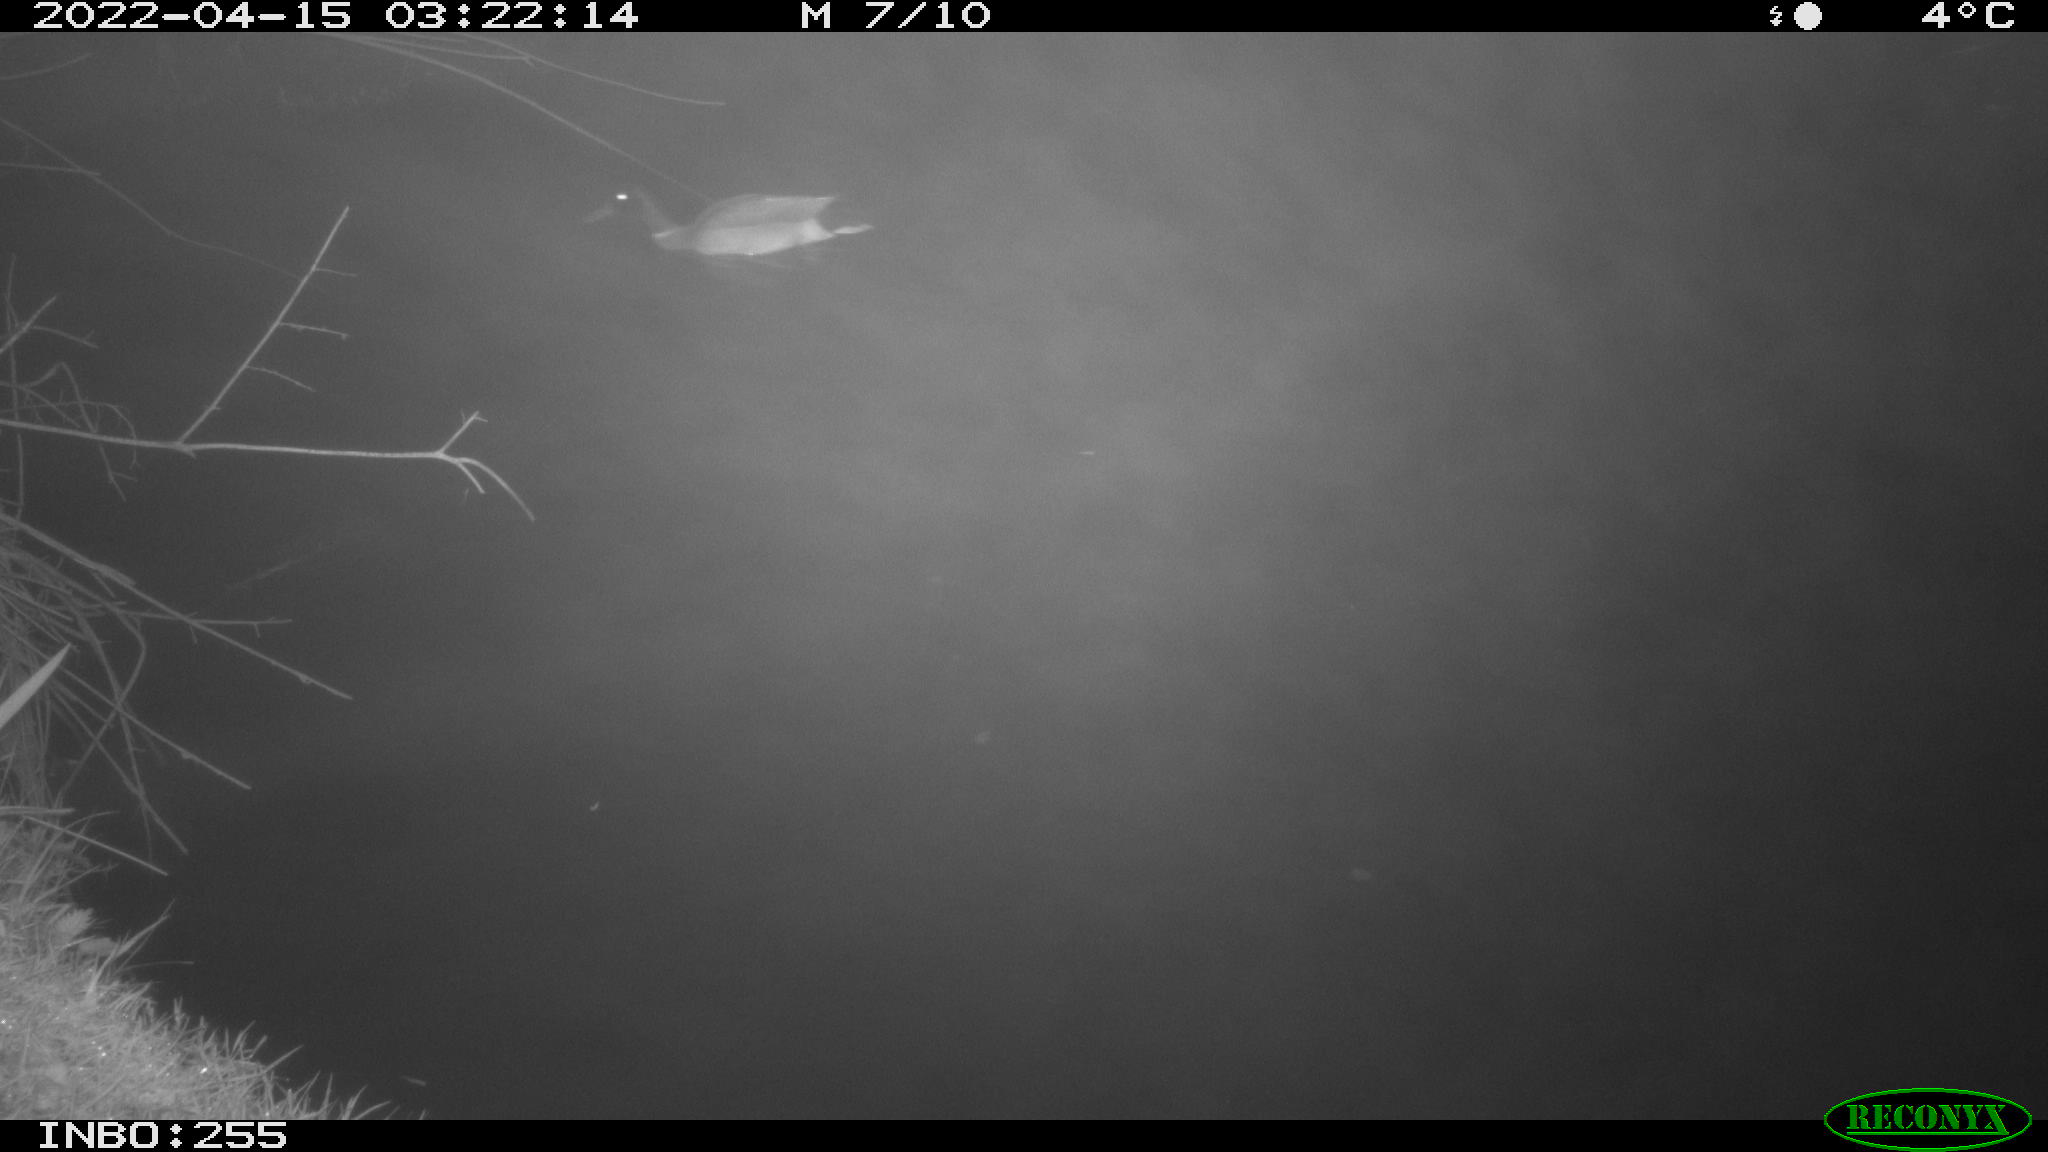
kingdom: Animalia
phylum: Chordata
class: Aves
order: Anseriformes
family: Anatidae
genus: Anas
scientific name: Anas platyrhynchos
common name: Mallard
